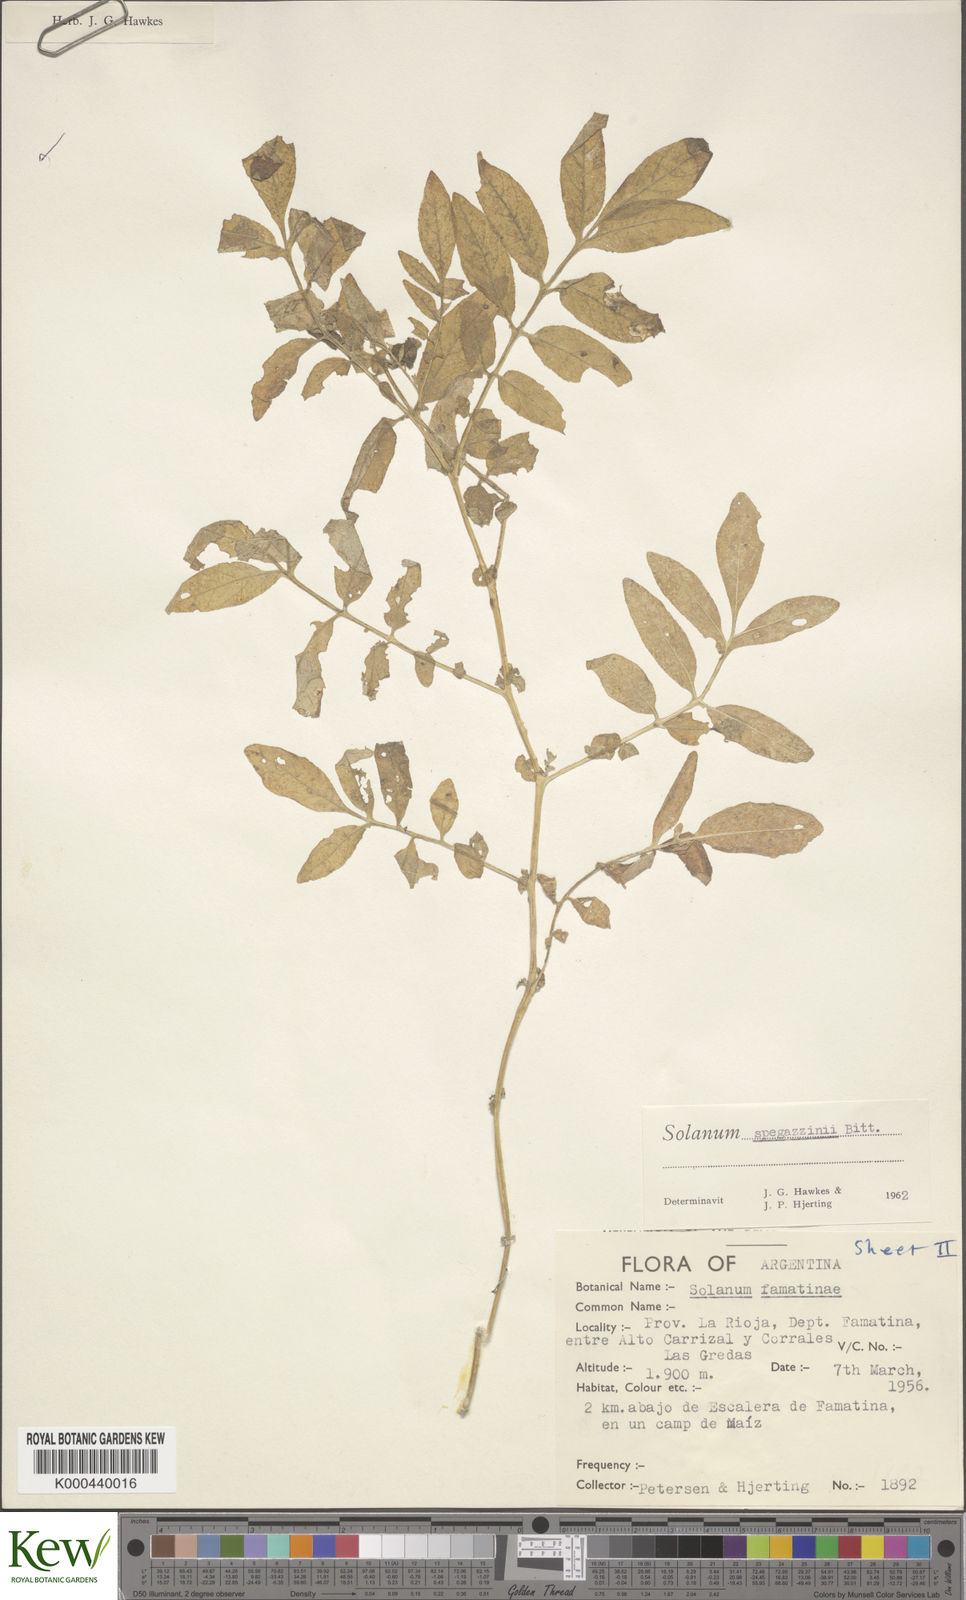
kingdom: Plantae
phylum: Tracheophyta
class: Magnoliopsida
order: Solanales
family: Solanaceae
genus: Solanum
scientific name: Solanum brevicaule
